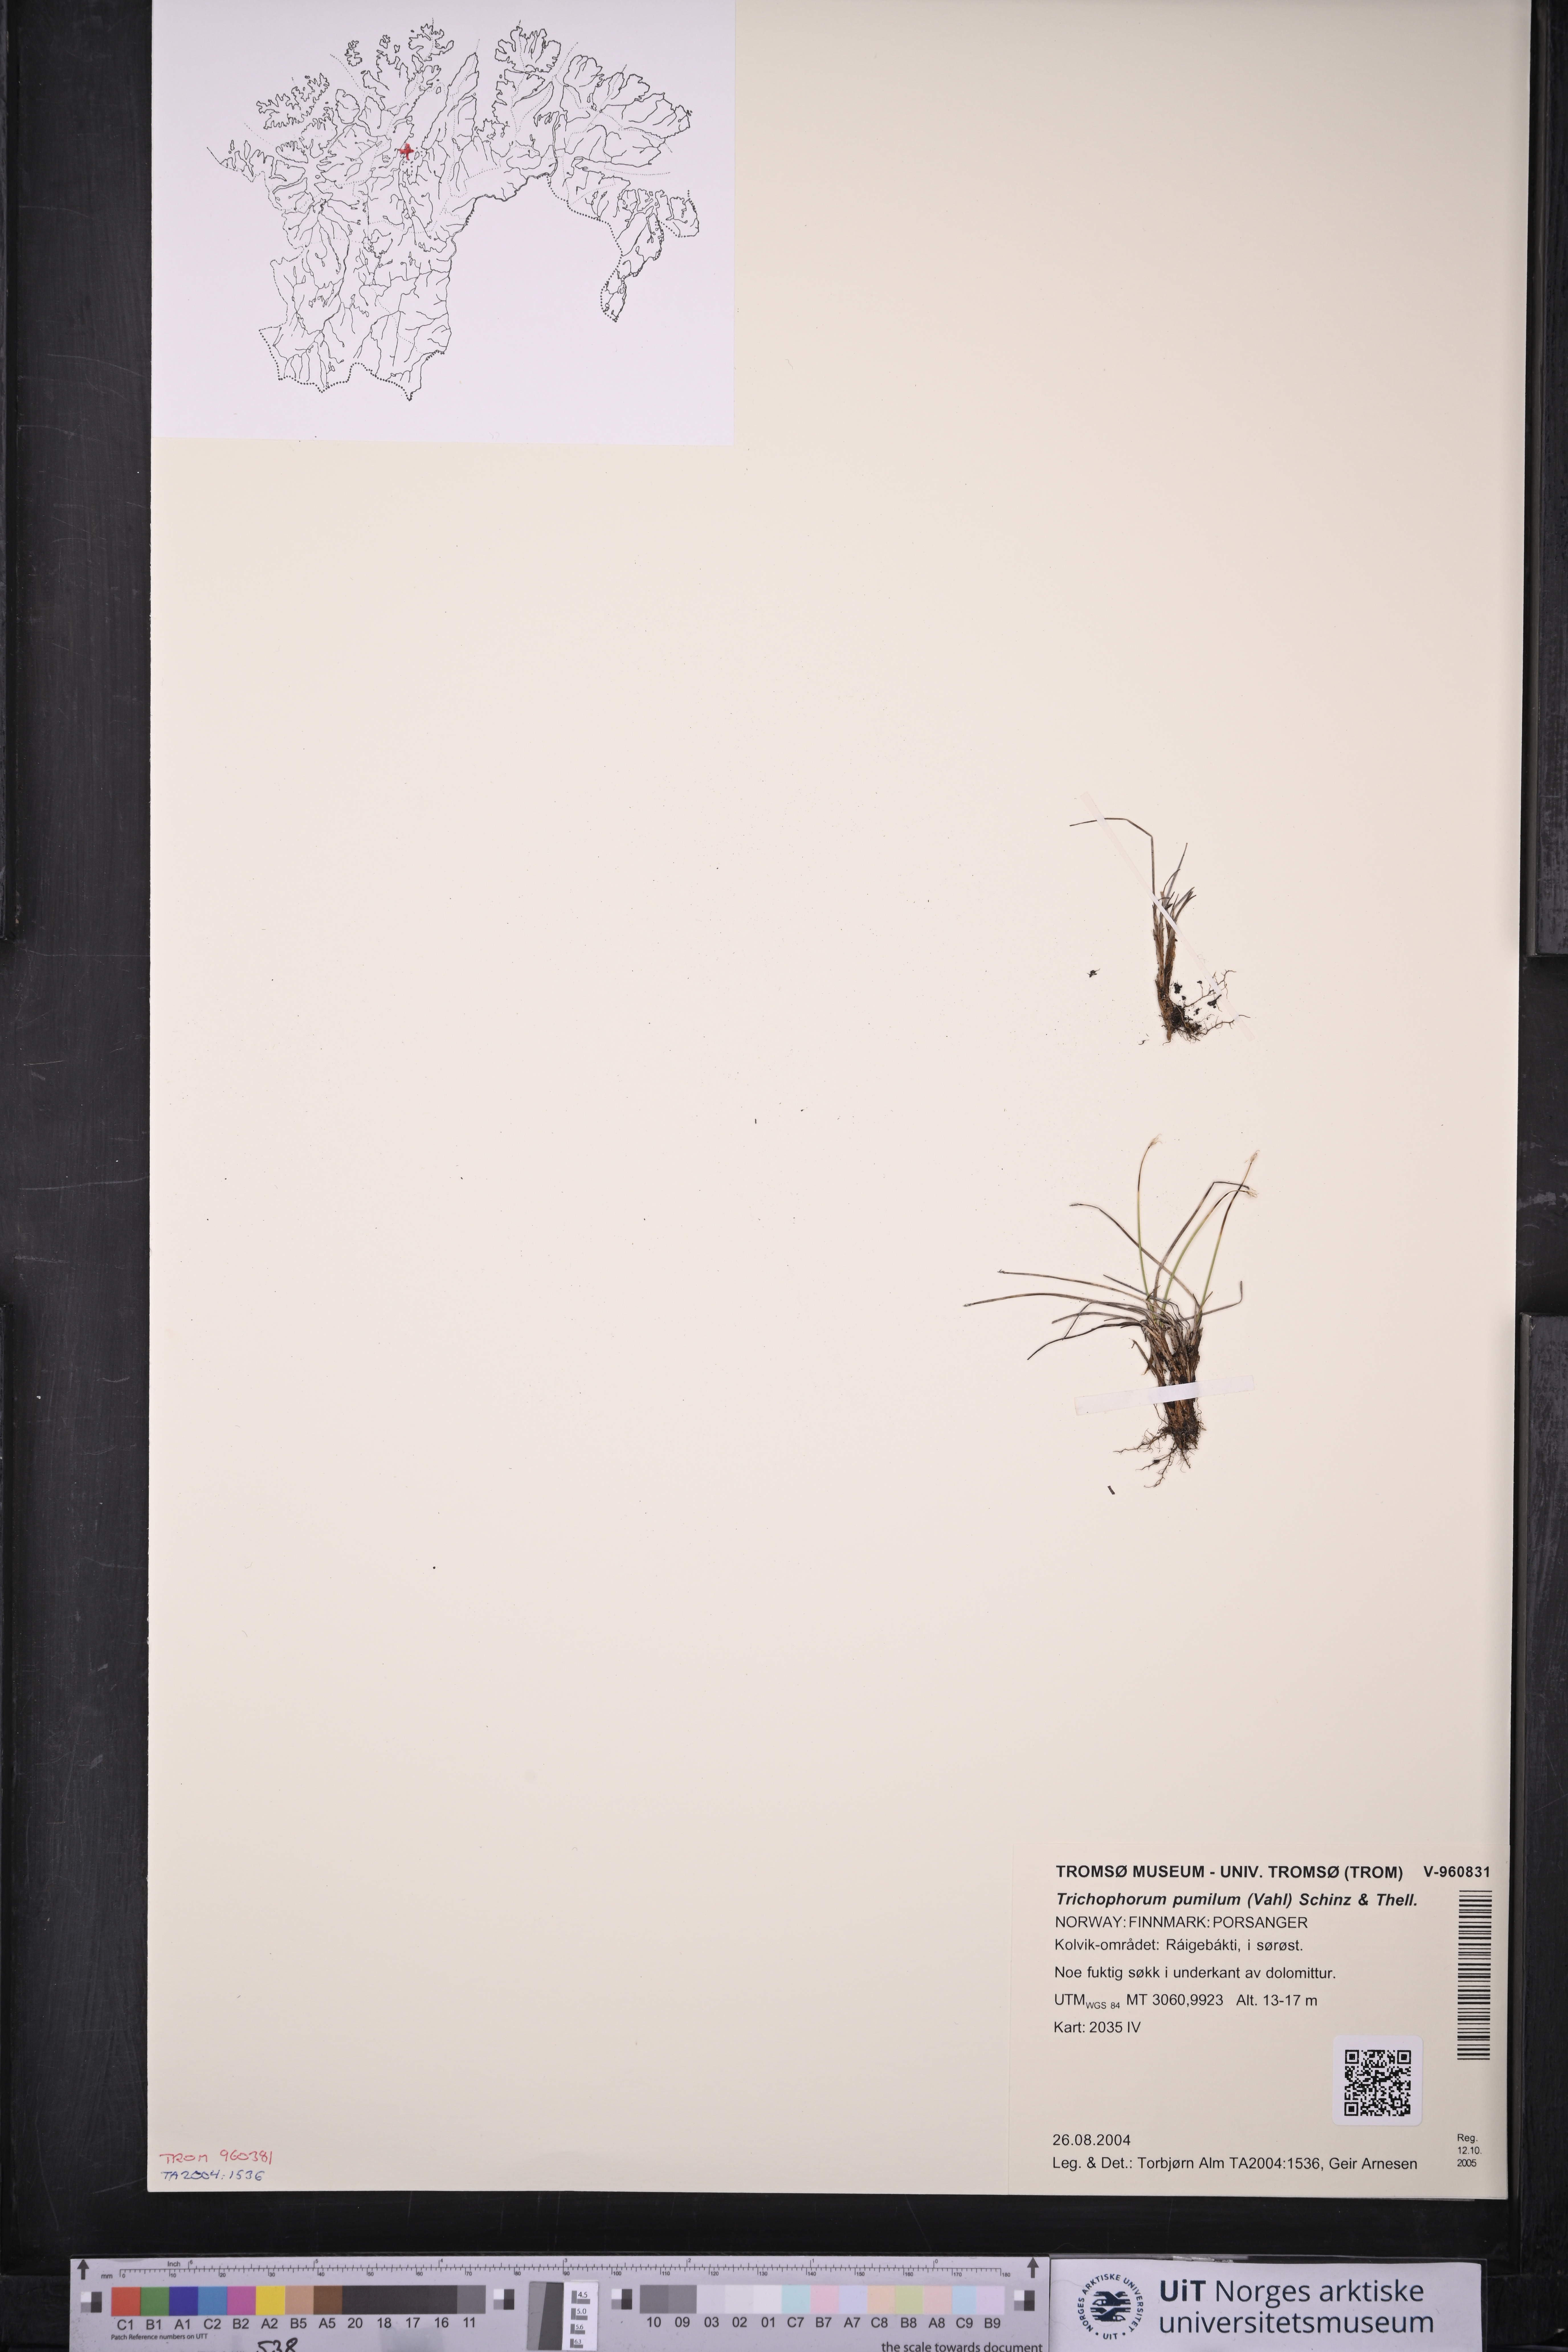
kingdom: Plantae
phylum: Tracheophyta
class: Liliopsida
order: Poales
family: Cyperaceae
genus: Trichophorum
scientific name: Trichophorum pumilum
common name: Rolland's bulrush
